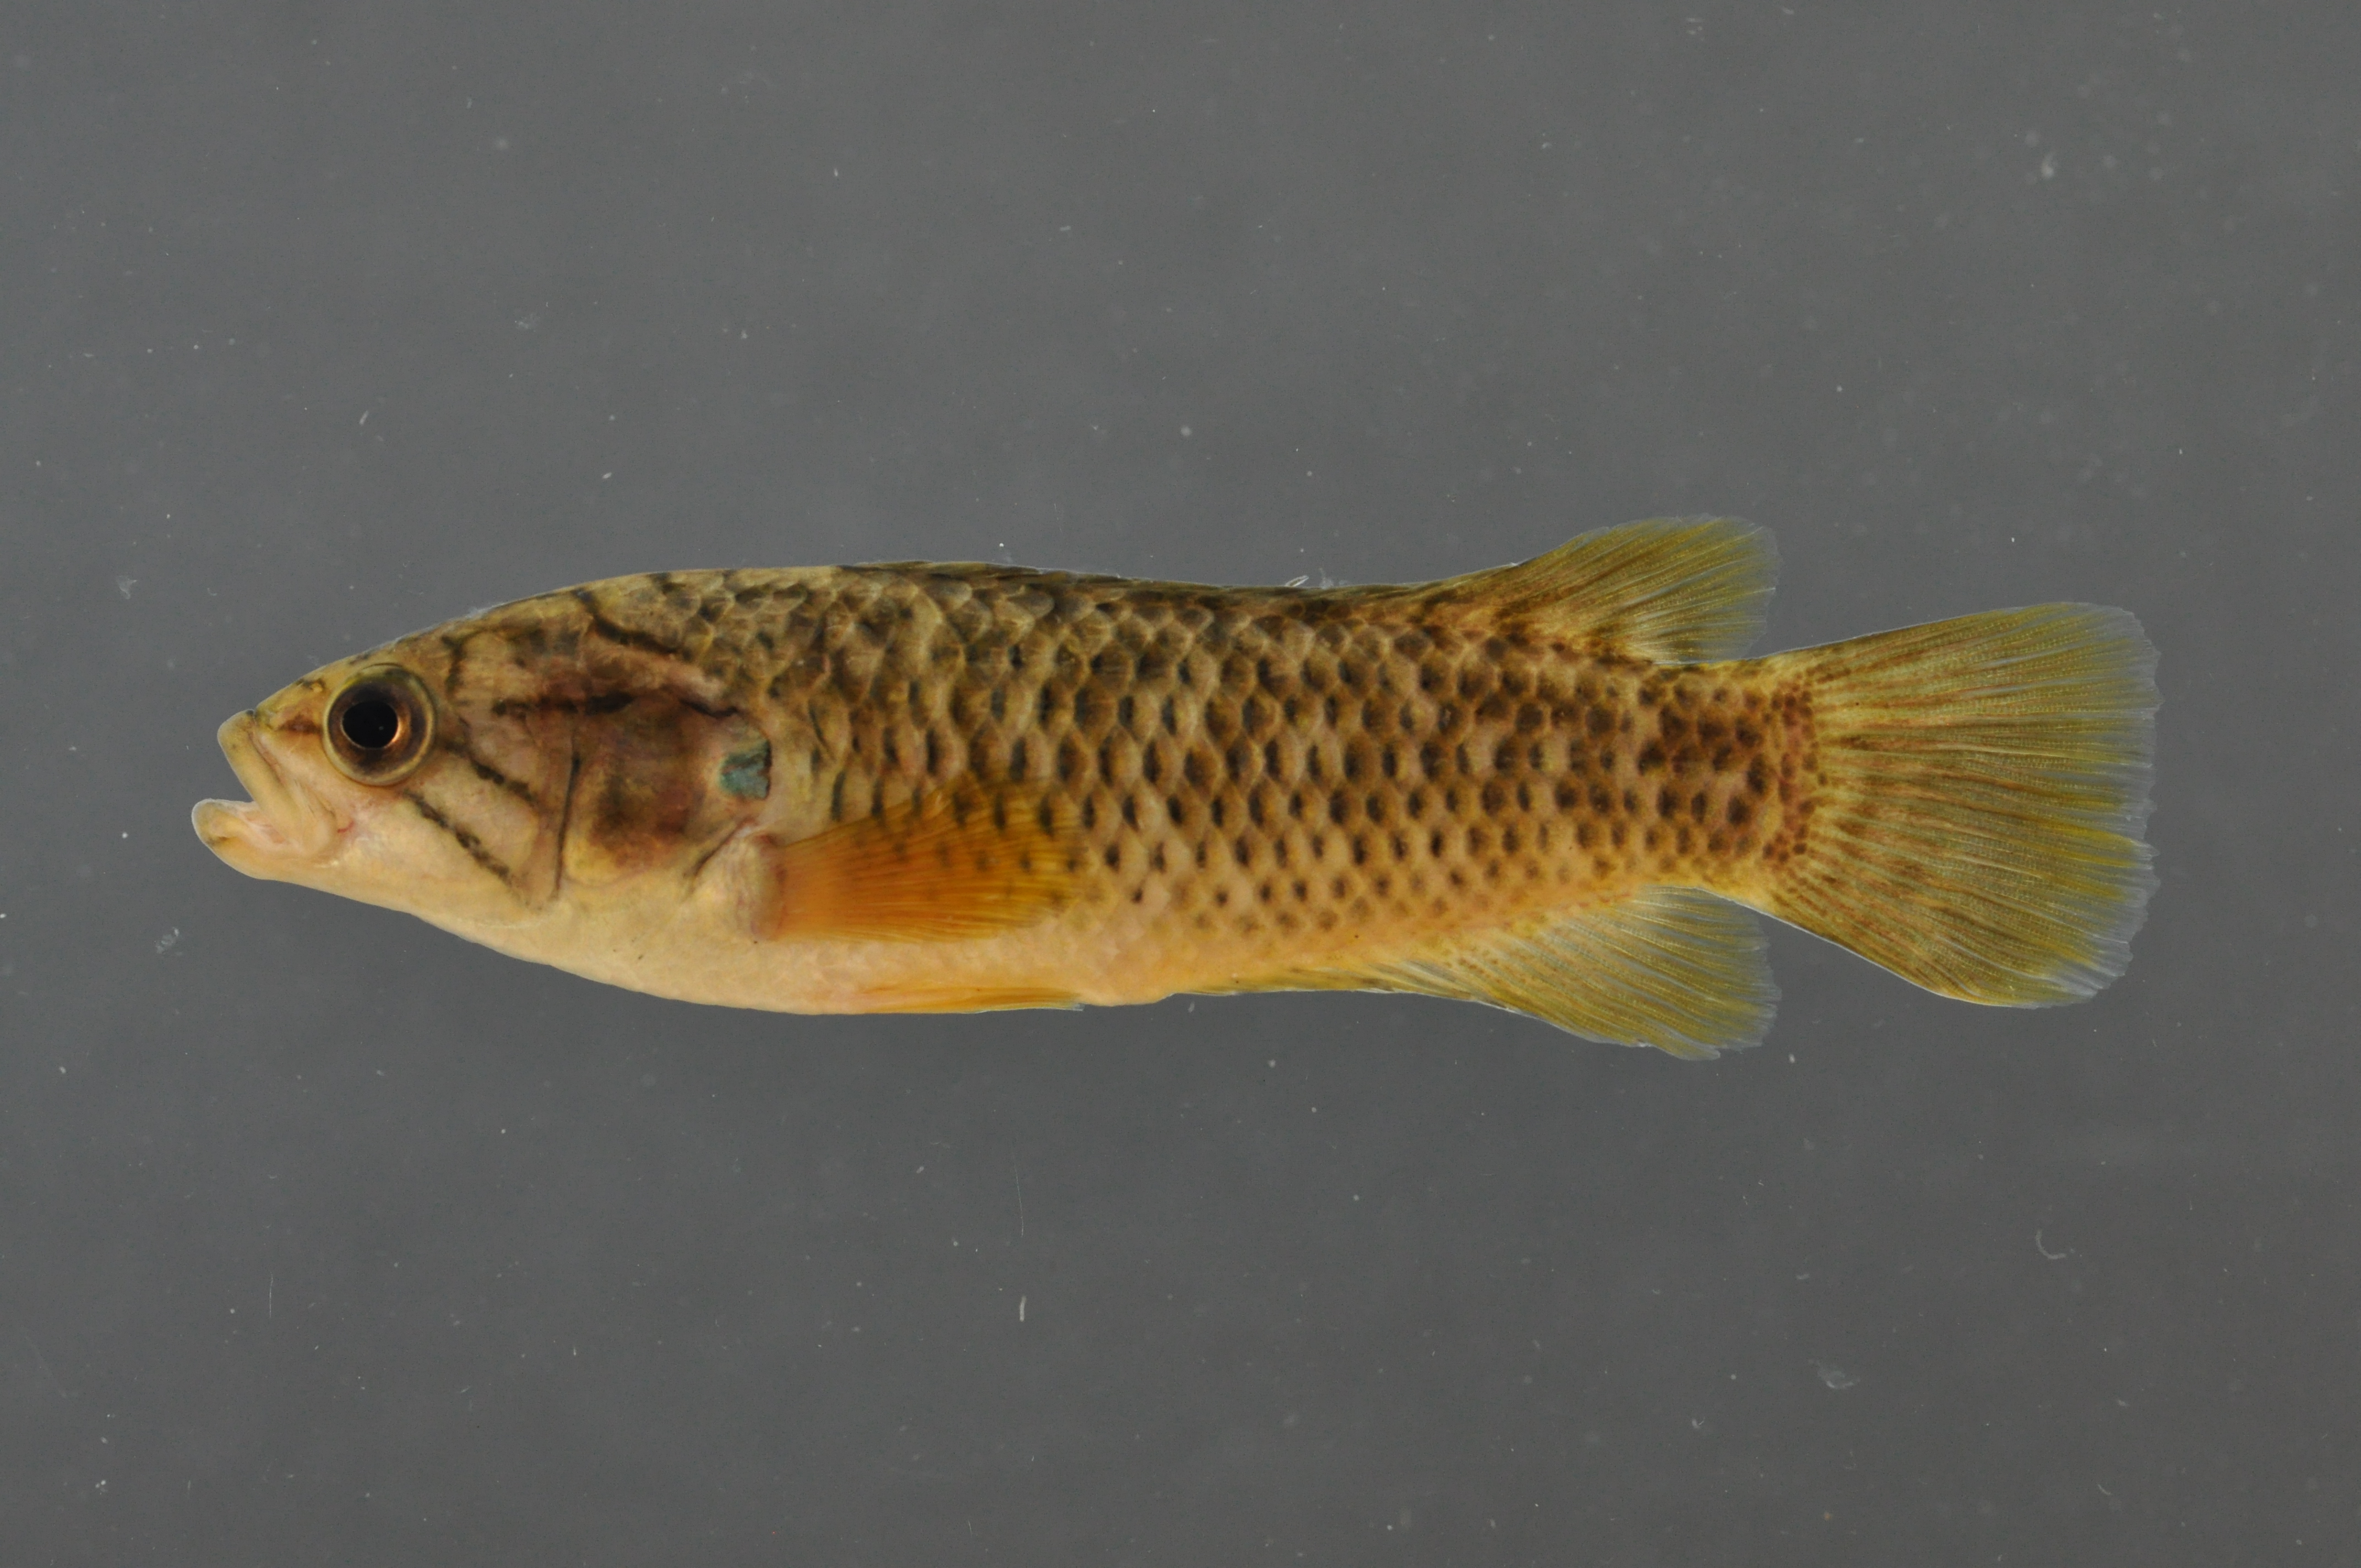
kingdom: Animalia
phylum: Chordata
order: Perciformes
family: Anabantidae
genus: Sandelia
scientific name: Sandelia capensis
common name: Cape kurper
